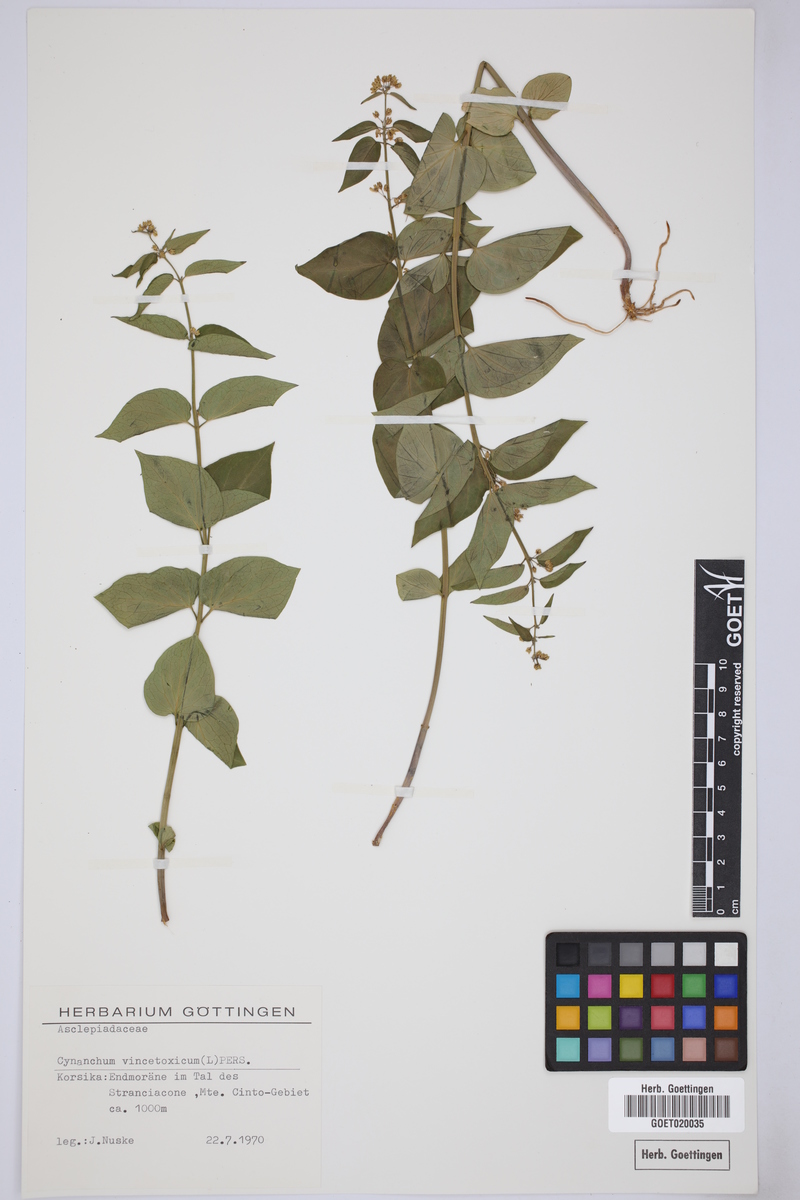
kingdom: Plantae
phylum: Tracheophyta
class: Magnoliopsida
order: Gentianales
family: Apocynaceae
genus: Vincetoxicum
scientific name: Vincetoxicum hirundinaria
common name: White swallowwort
